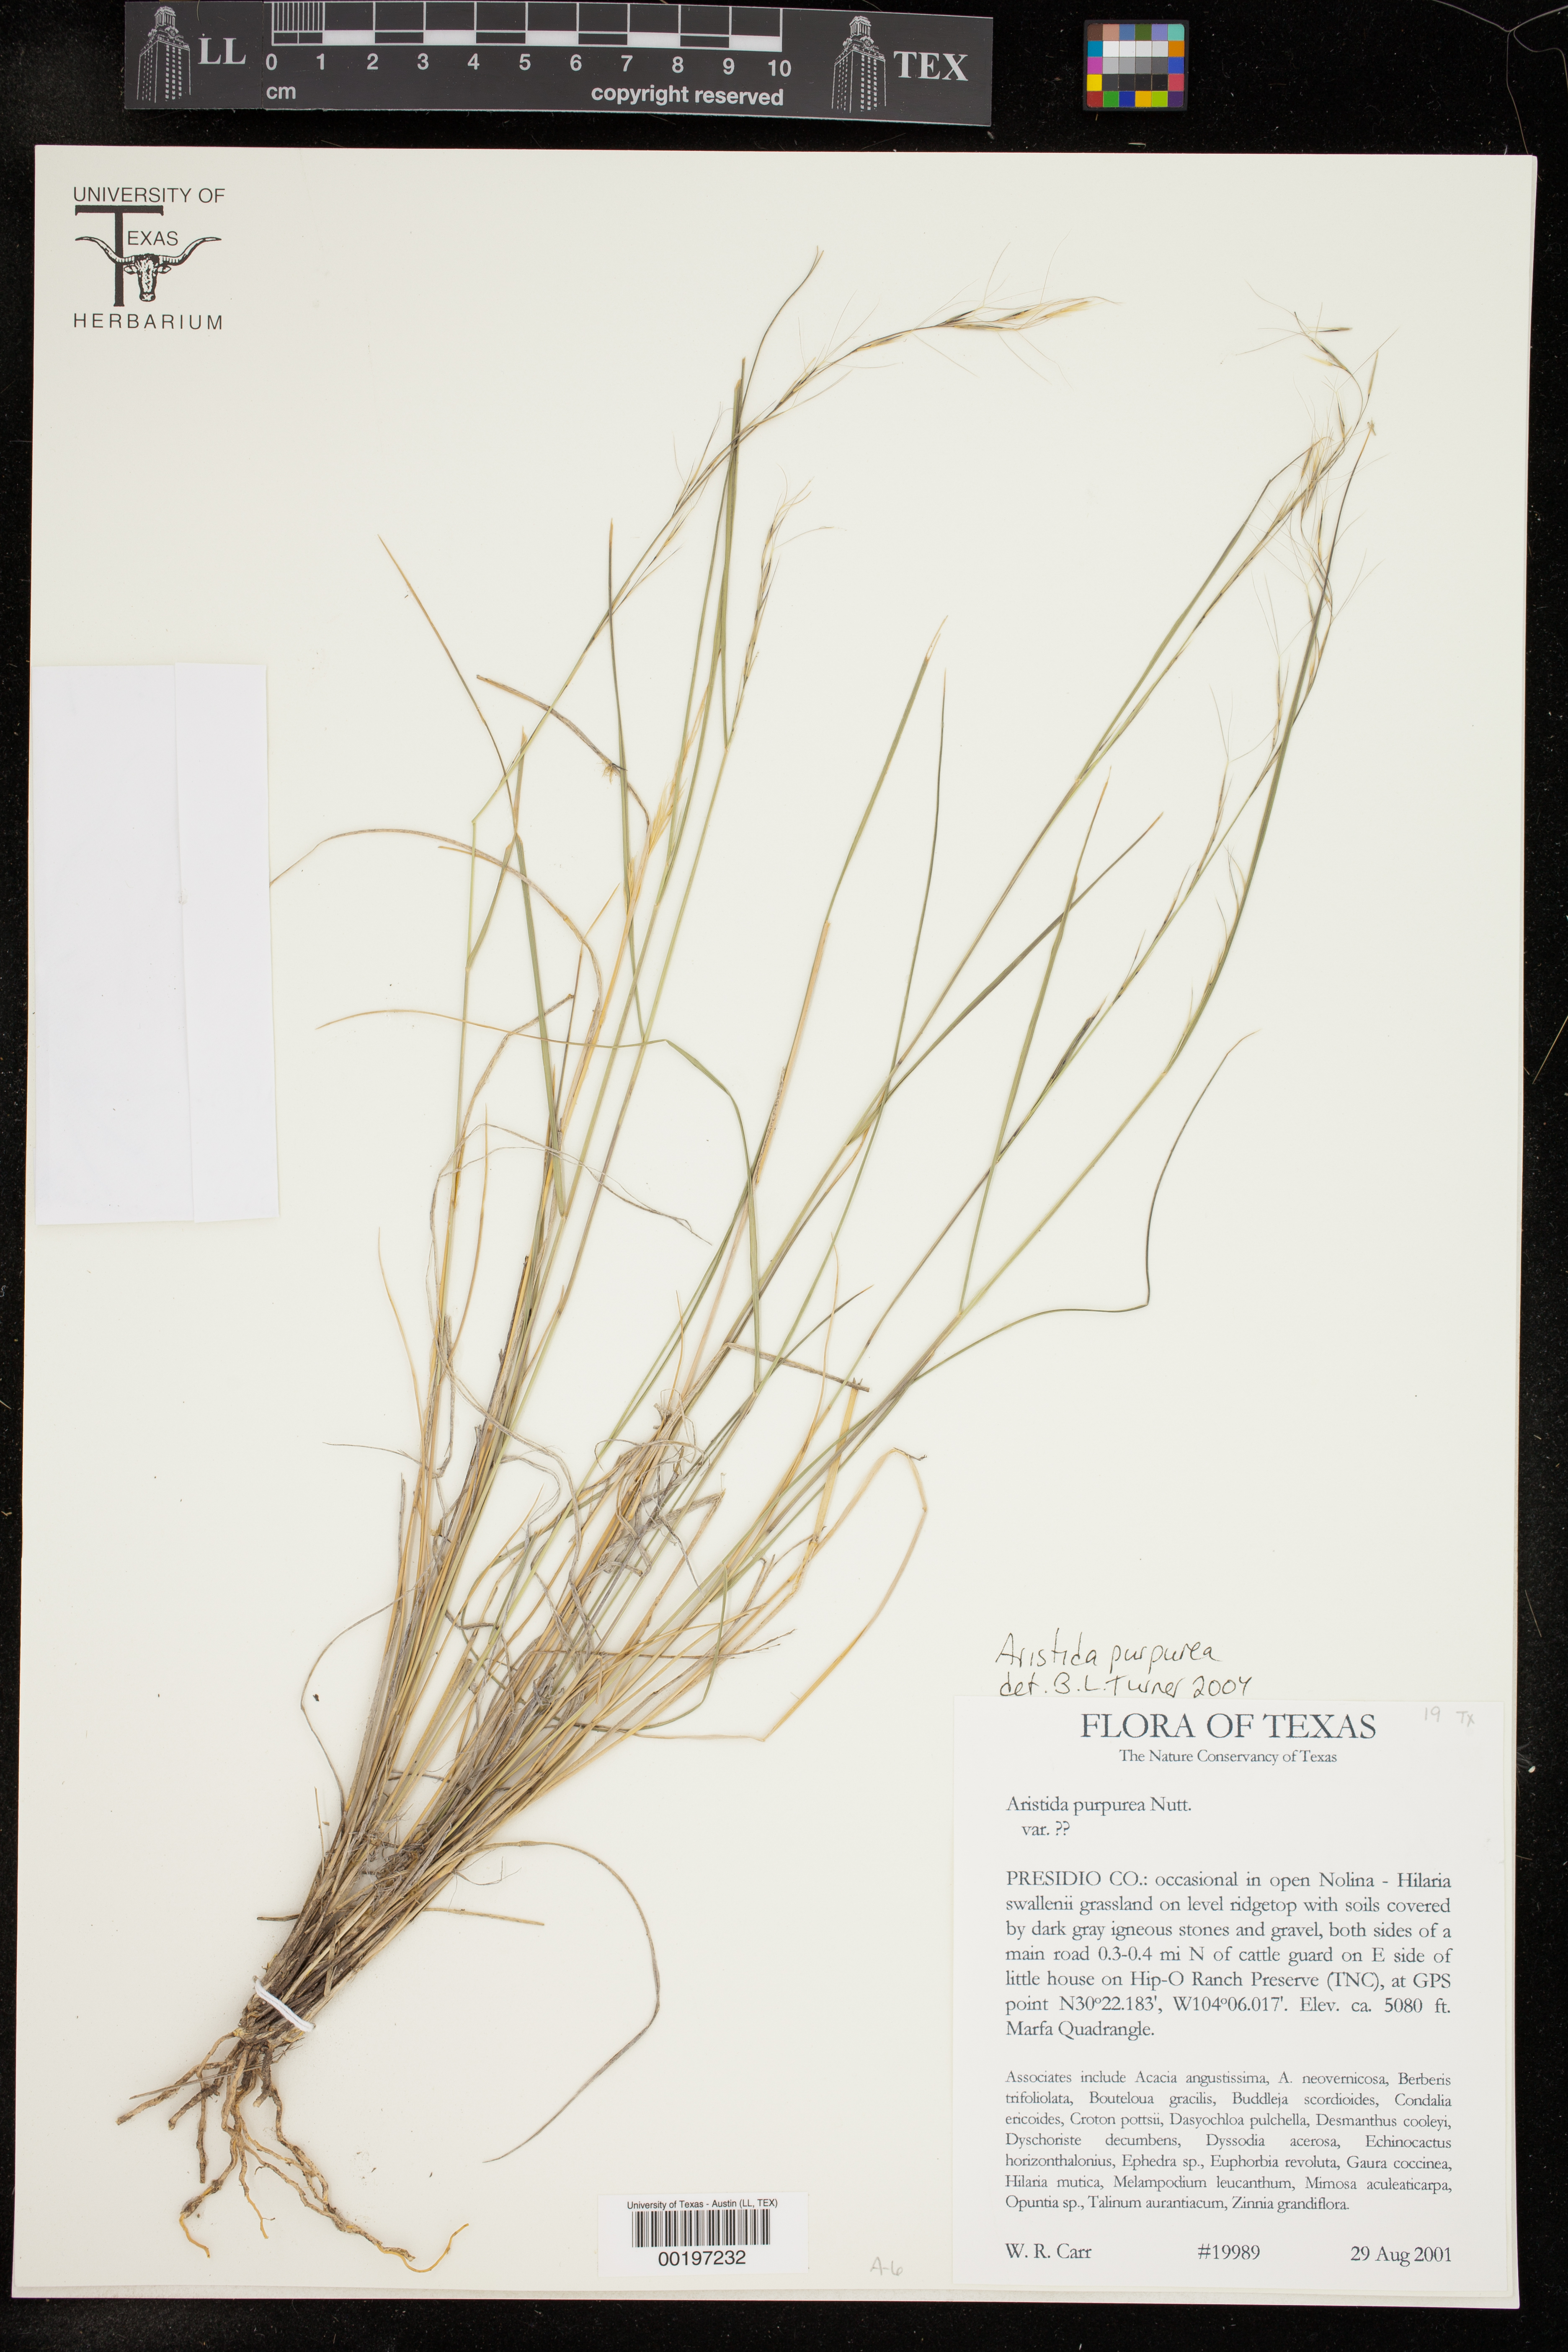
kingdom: Plantae
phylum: Tracheophyta
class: Liliopsida
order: Poales
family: Poaceae
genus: Aristida
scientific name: Aristida purpurea
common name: Purple threeawn
